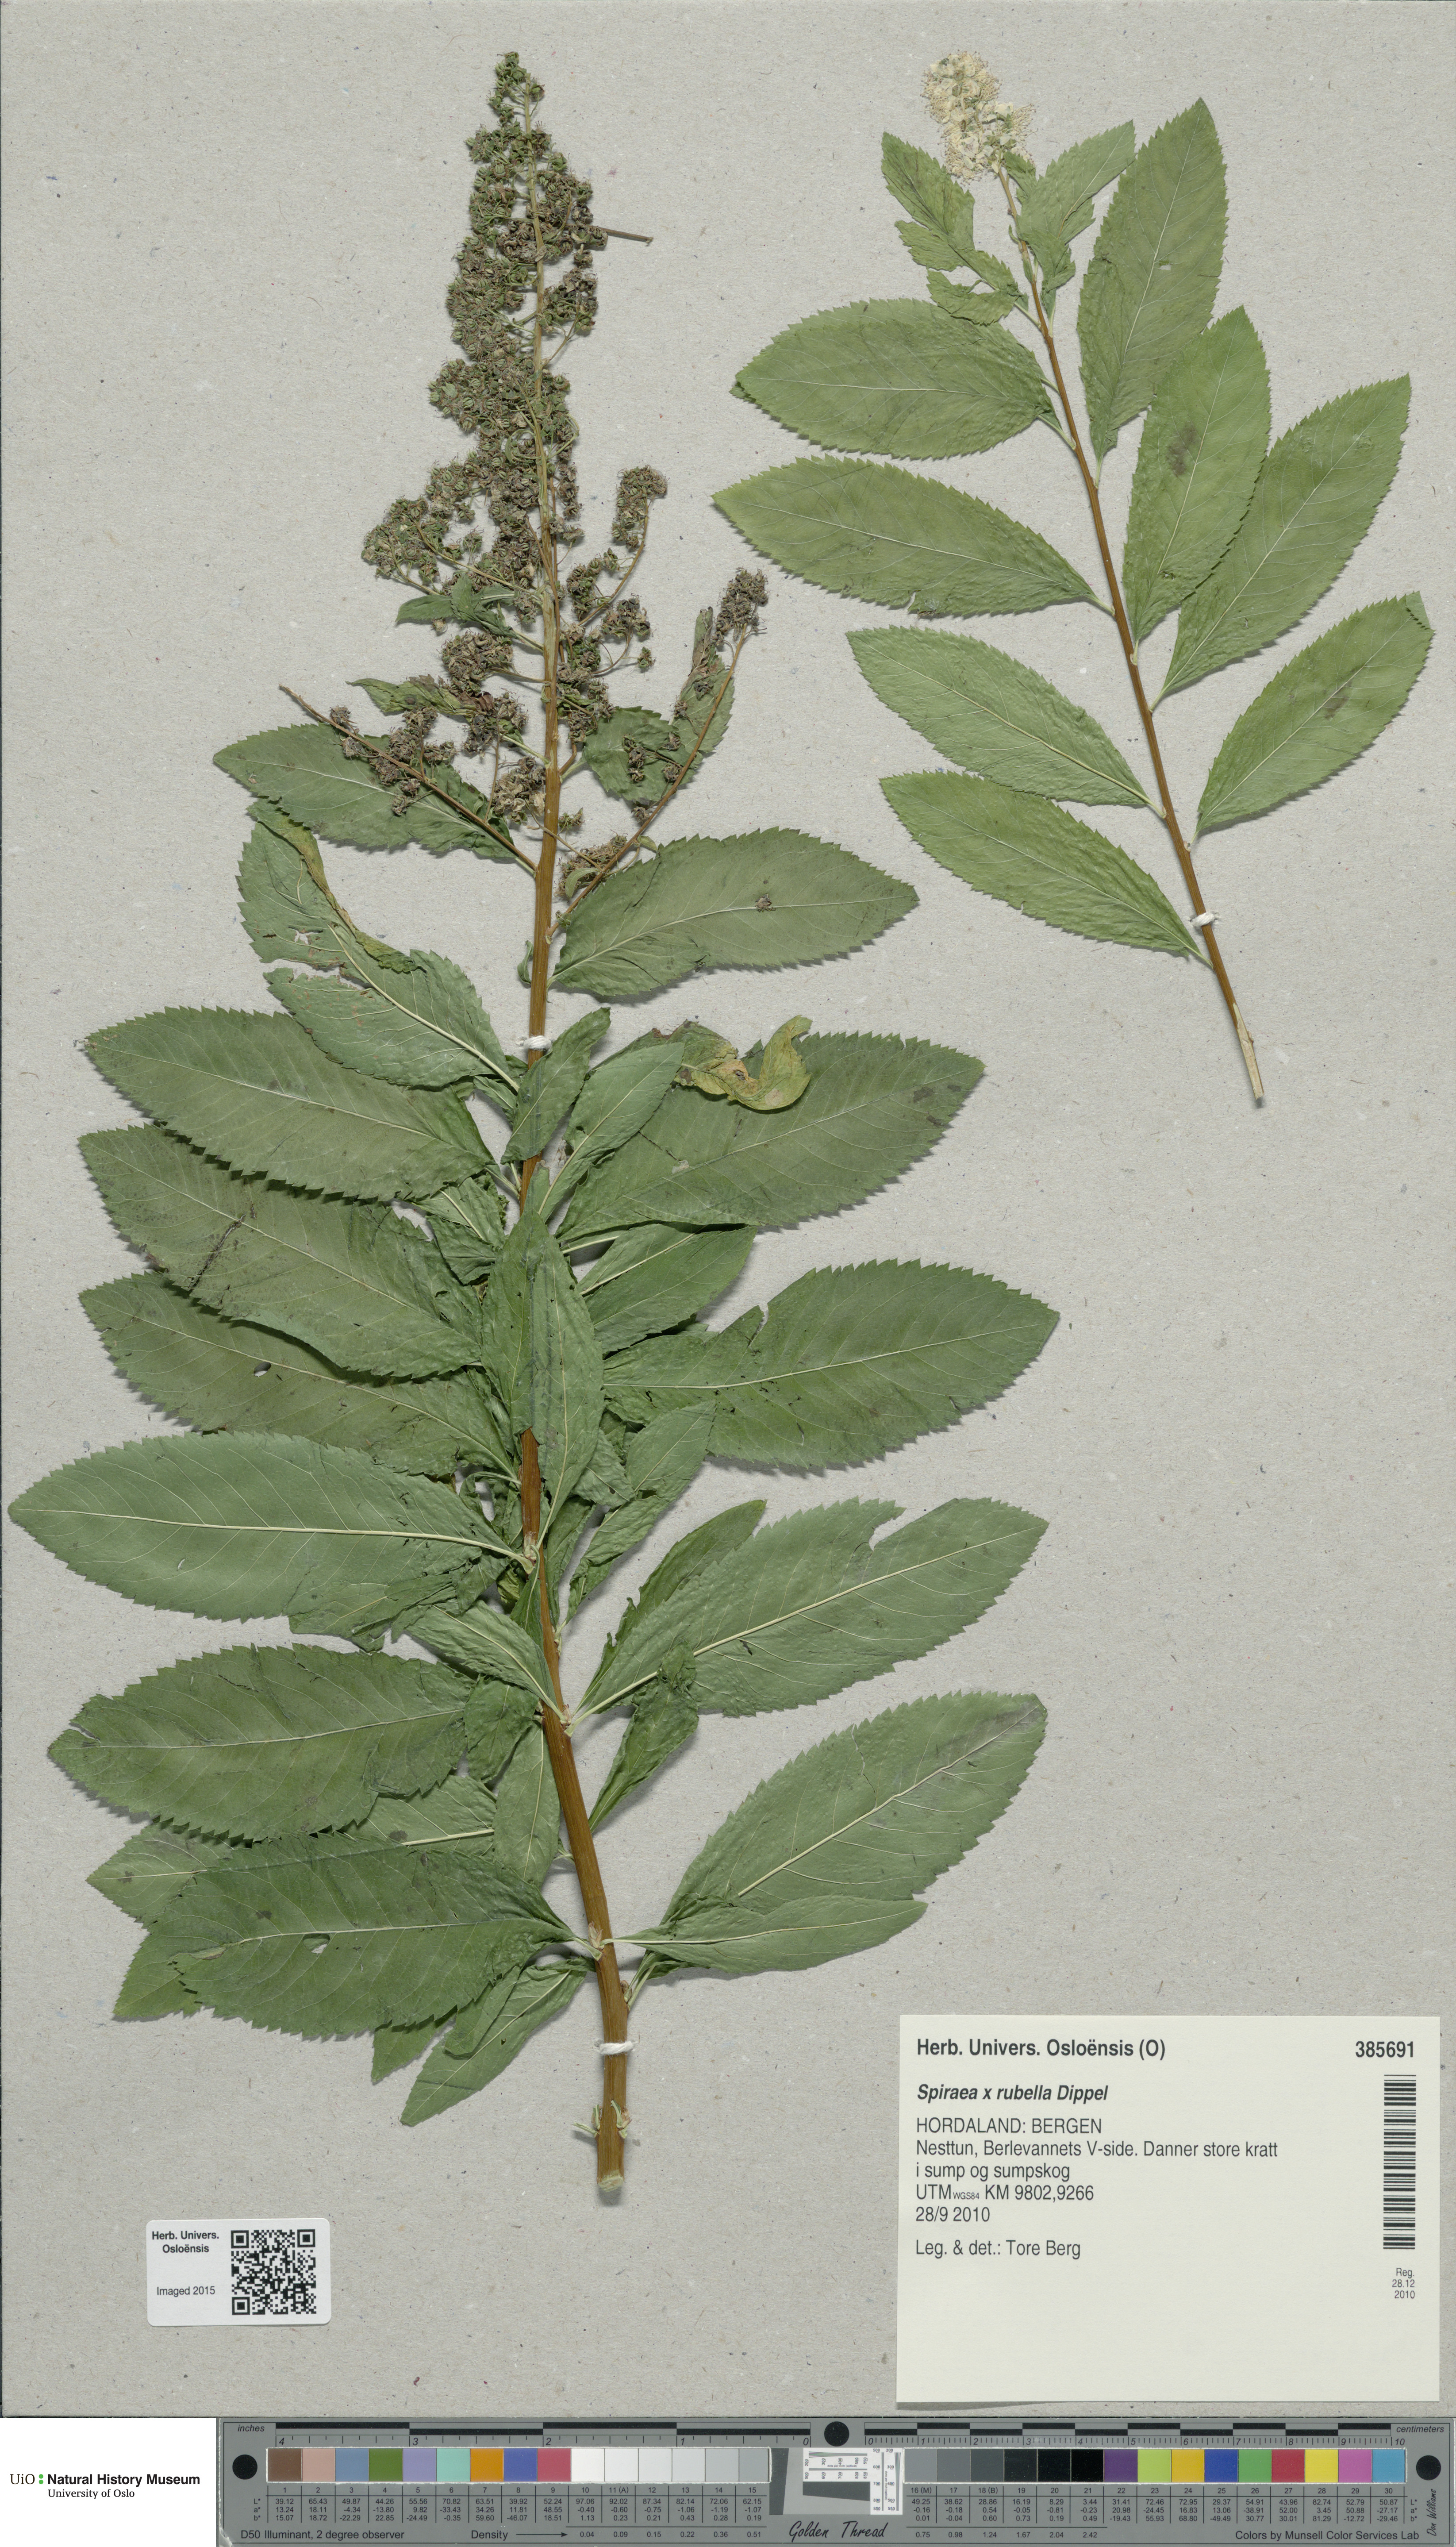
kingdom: Plantae
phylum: Tracheophyta
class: Magnoliopsida
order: Rosales
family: Rosaceae
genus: Spiraea
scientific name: Spiraea rosalba
